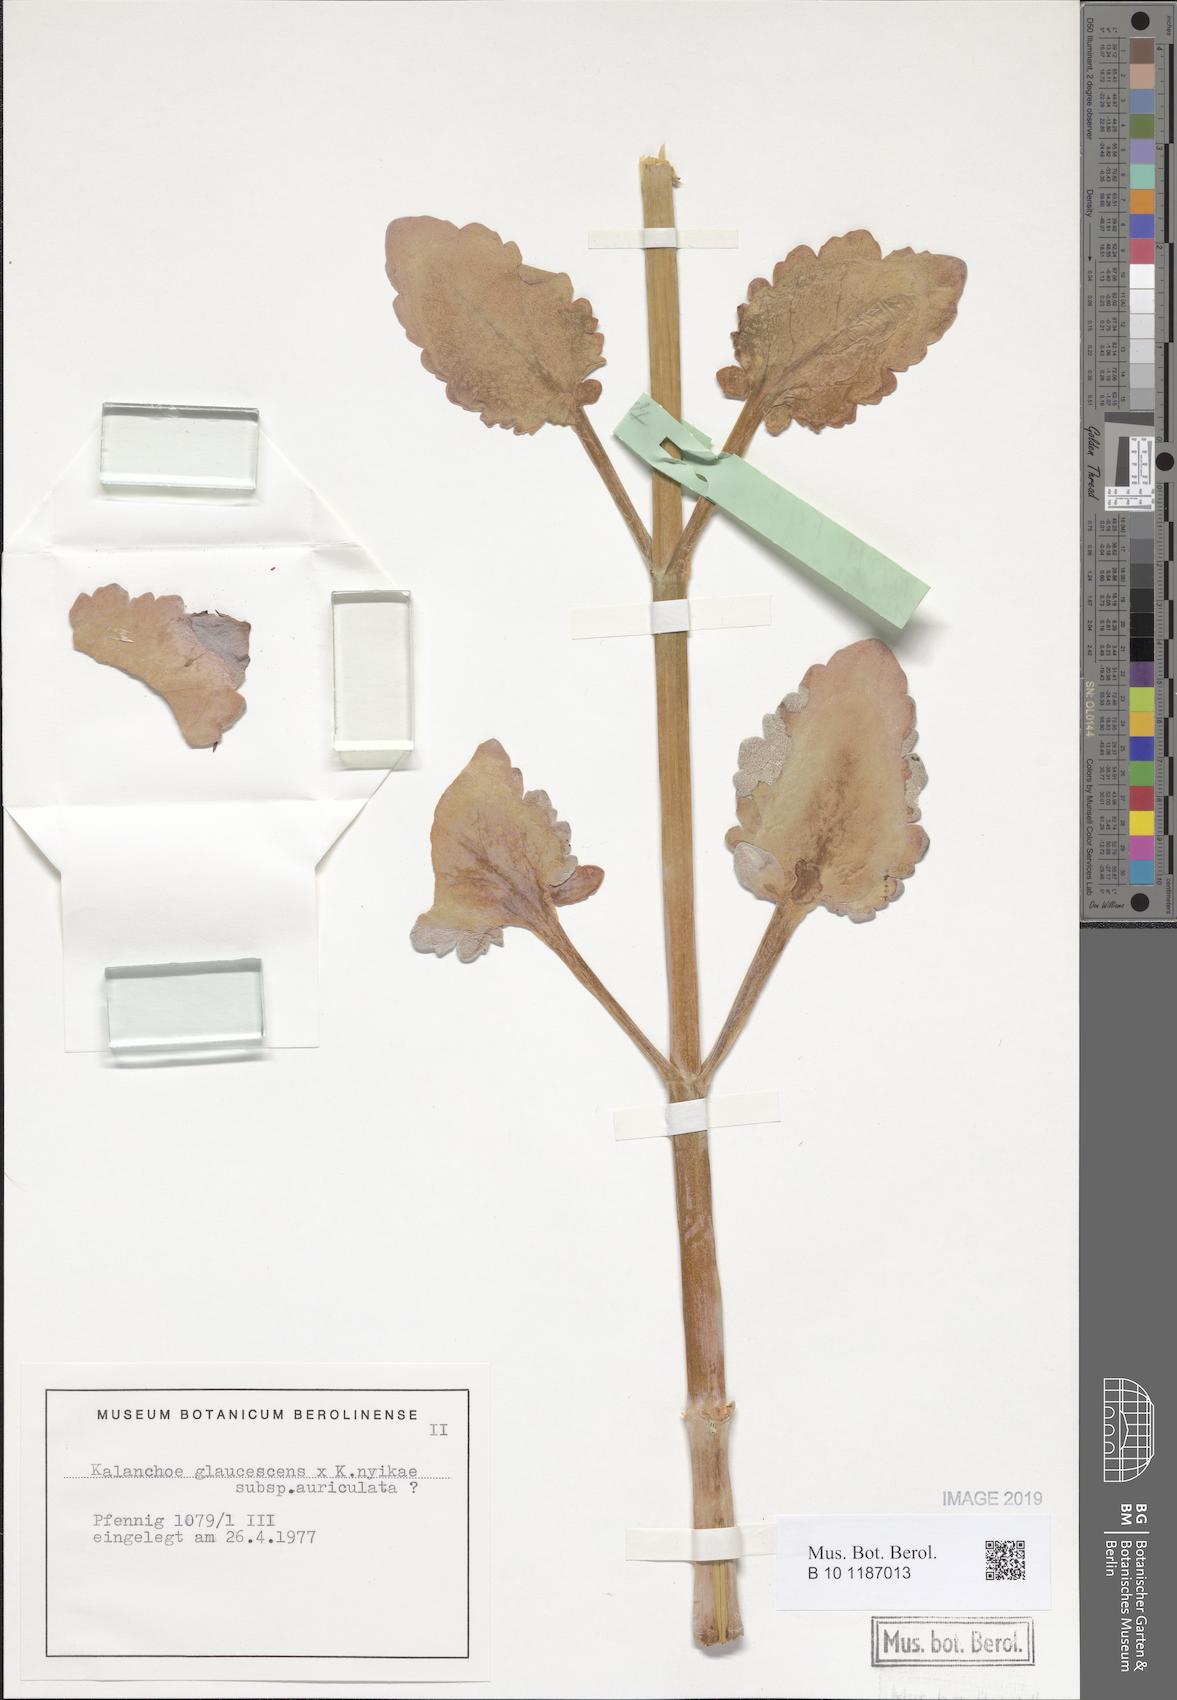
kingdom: Plantae
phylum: Tracheophyta
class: Magnoliopsida
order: Saxifragales
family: Crassulaceae
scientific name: Crassulaceae
